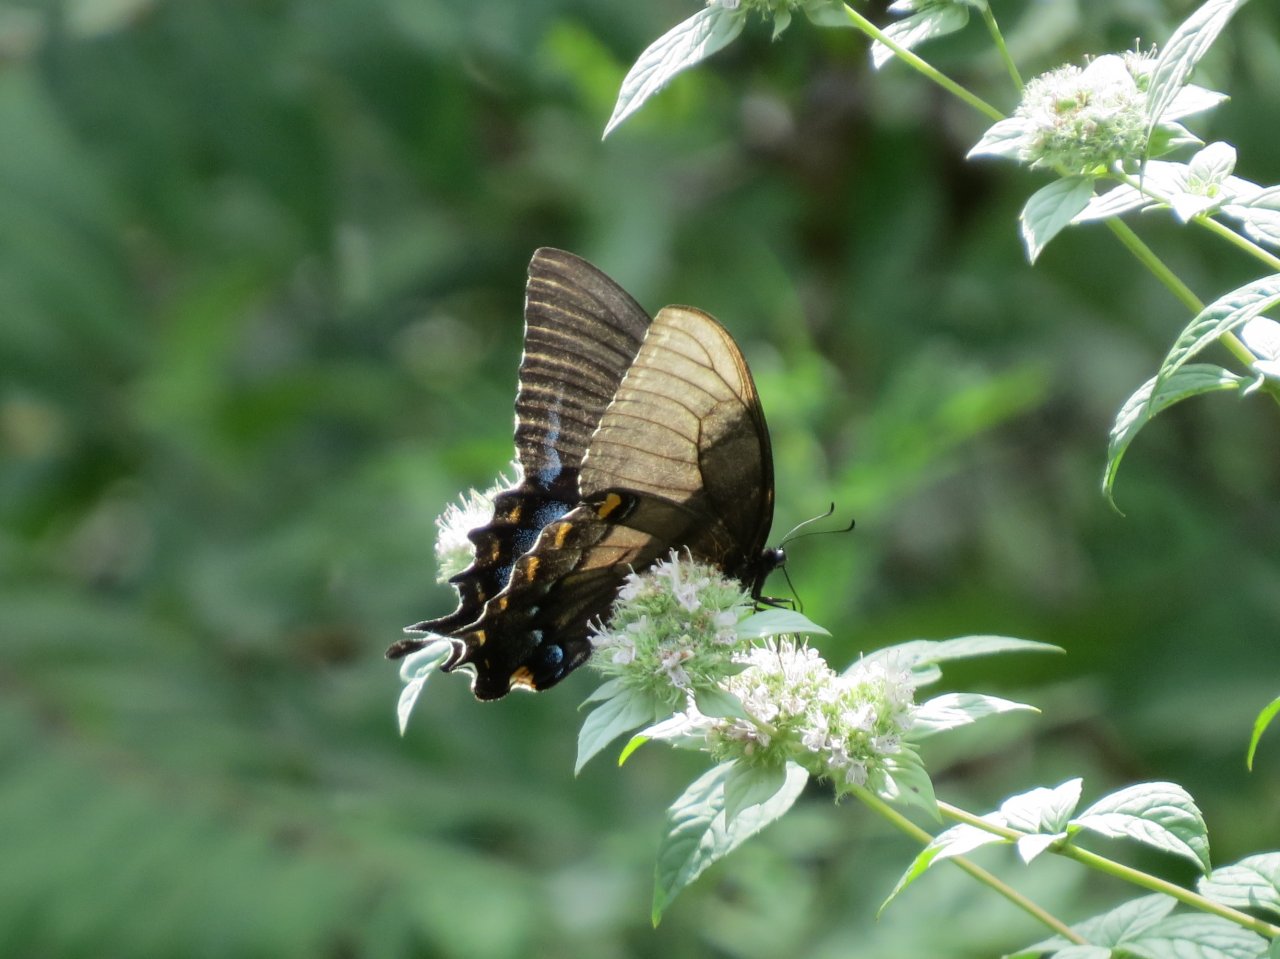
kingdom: Animalia
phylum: Arthropoda
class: Insecta
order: Lepidoptera
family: Papilionidae
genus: Pterourus
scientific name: Pterourus glaucus
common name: Eastern Tiger Swallowtail
